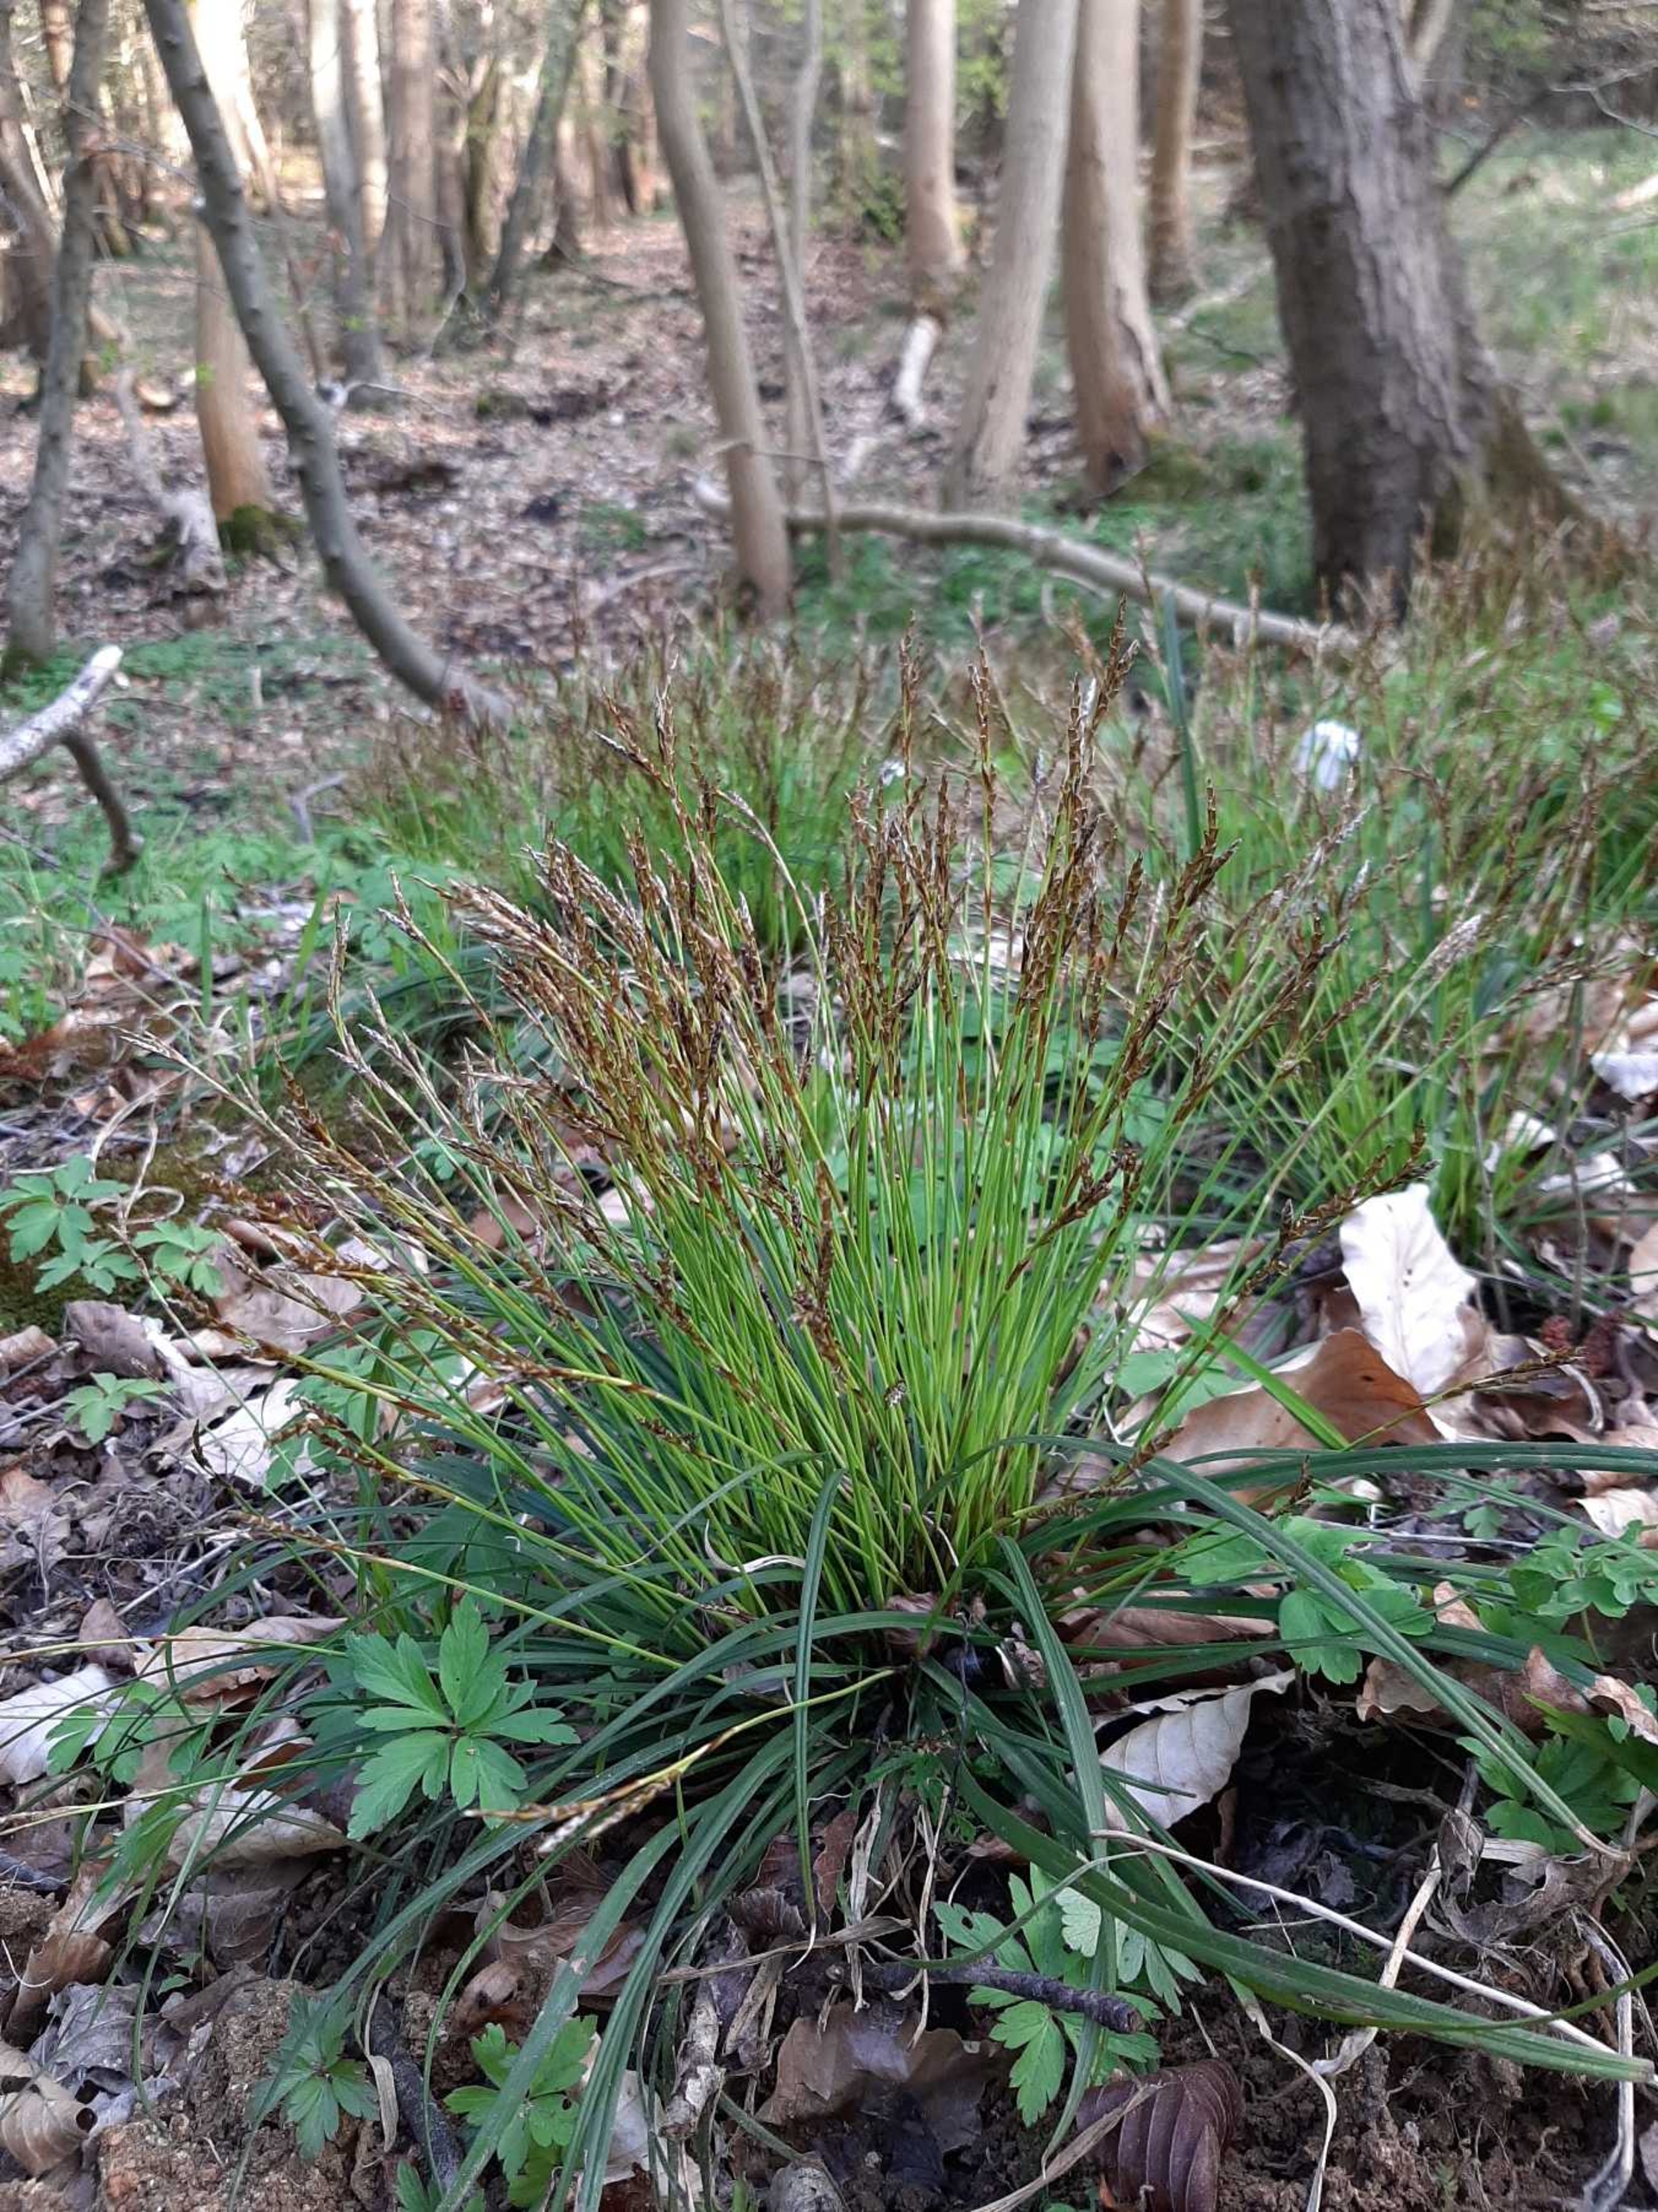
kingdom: Plantae
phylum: Tracheophyta
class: Liliopsida
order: Poales
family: Cyperaceae
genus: Carex
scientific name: Carex digitata
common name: Finger-star
